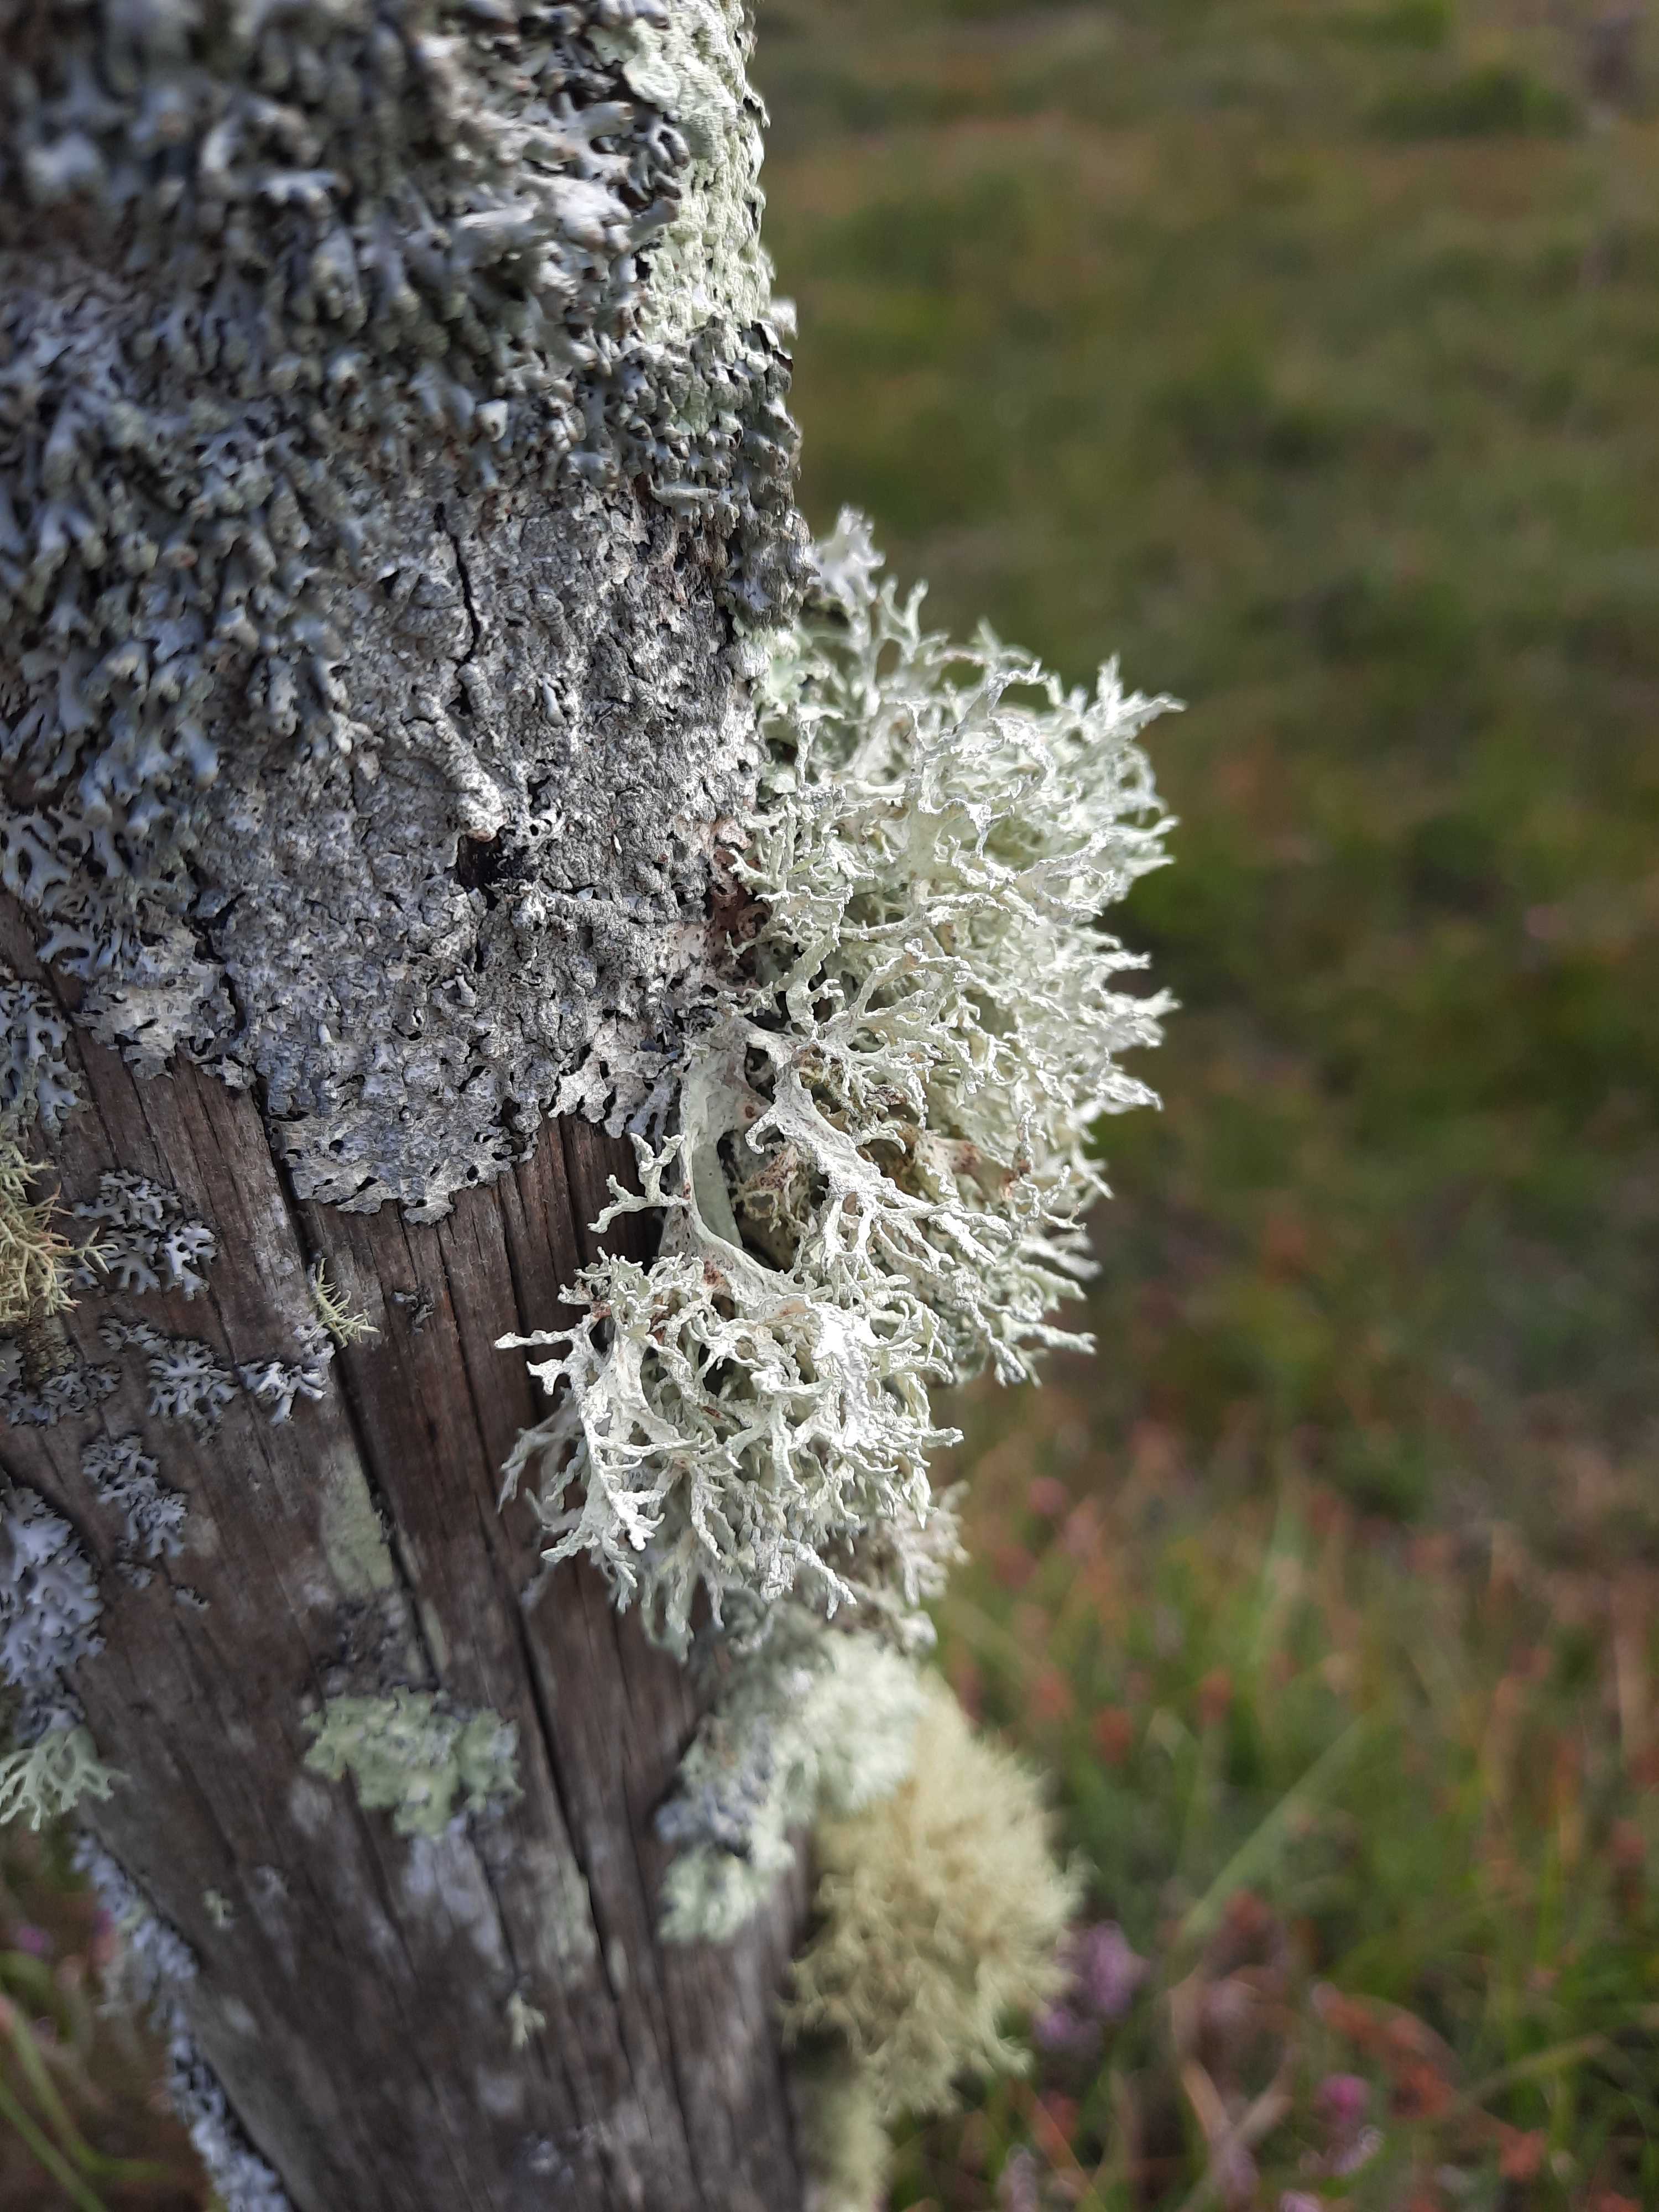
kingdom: Fungi
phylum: Ascomycota
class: Lecanoromycetes
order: Lecanorales
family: Parmeliaceae
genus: Evernia
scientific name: Evernia prunastri
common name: almindelig slåenlav
